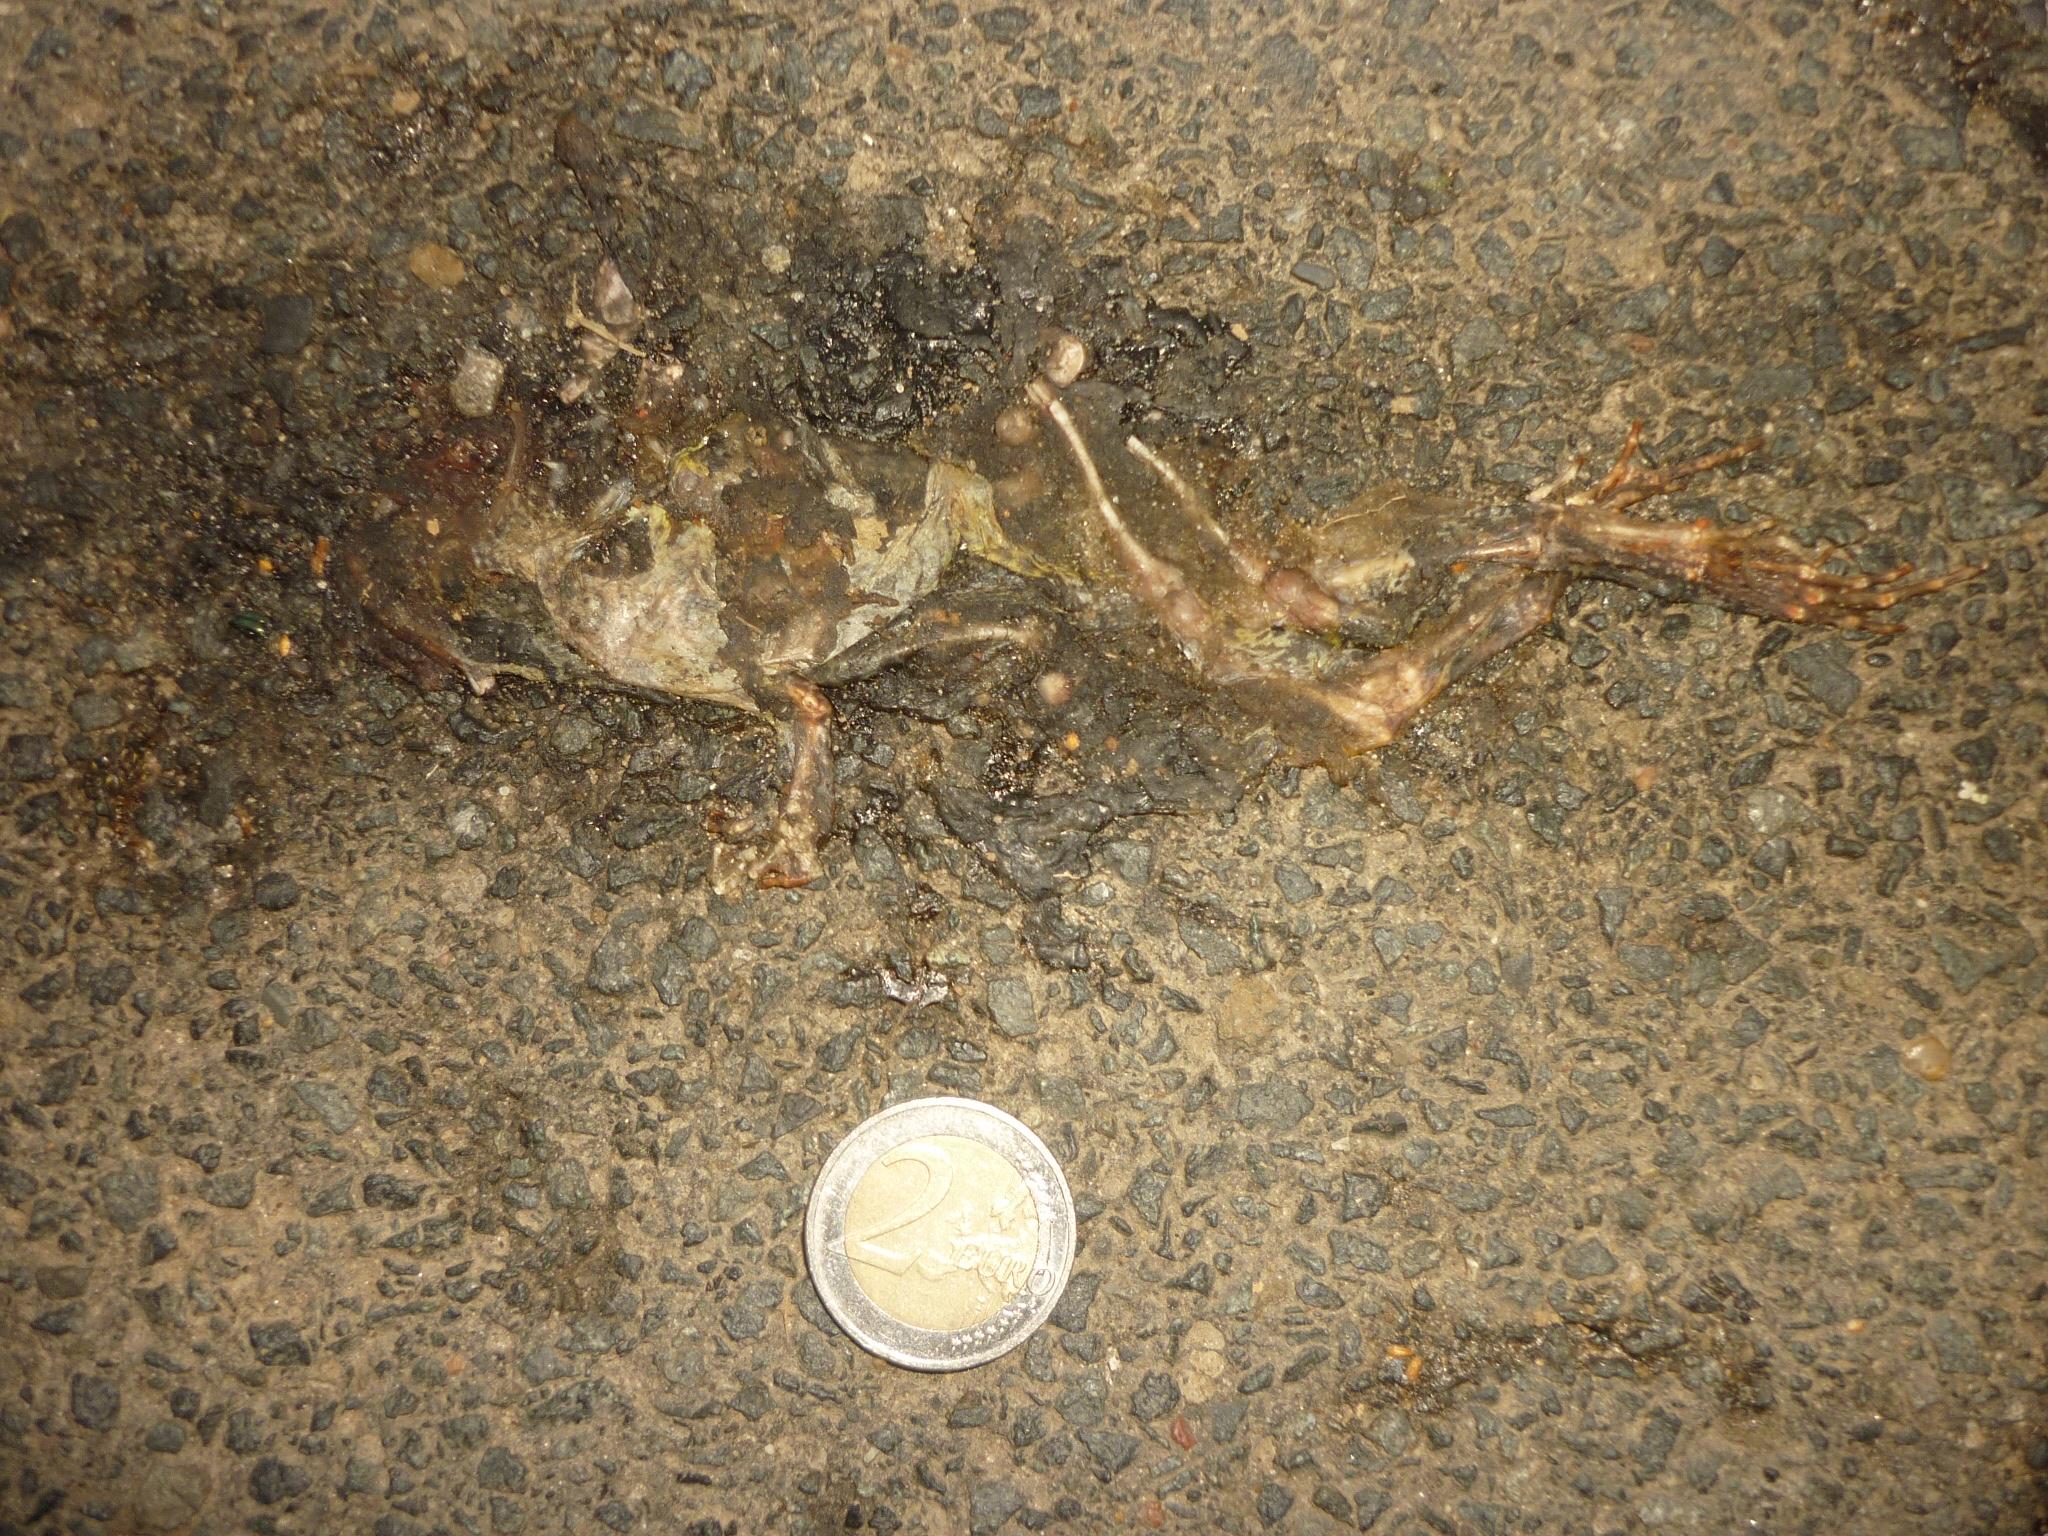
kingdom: Animalia
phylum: Chordata
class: Amphibia
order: Anura
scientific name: Anura
